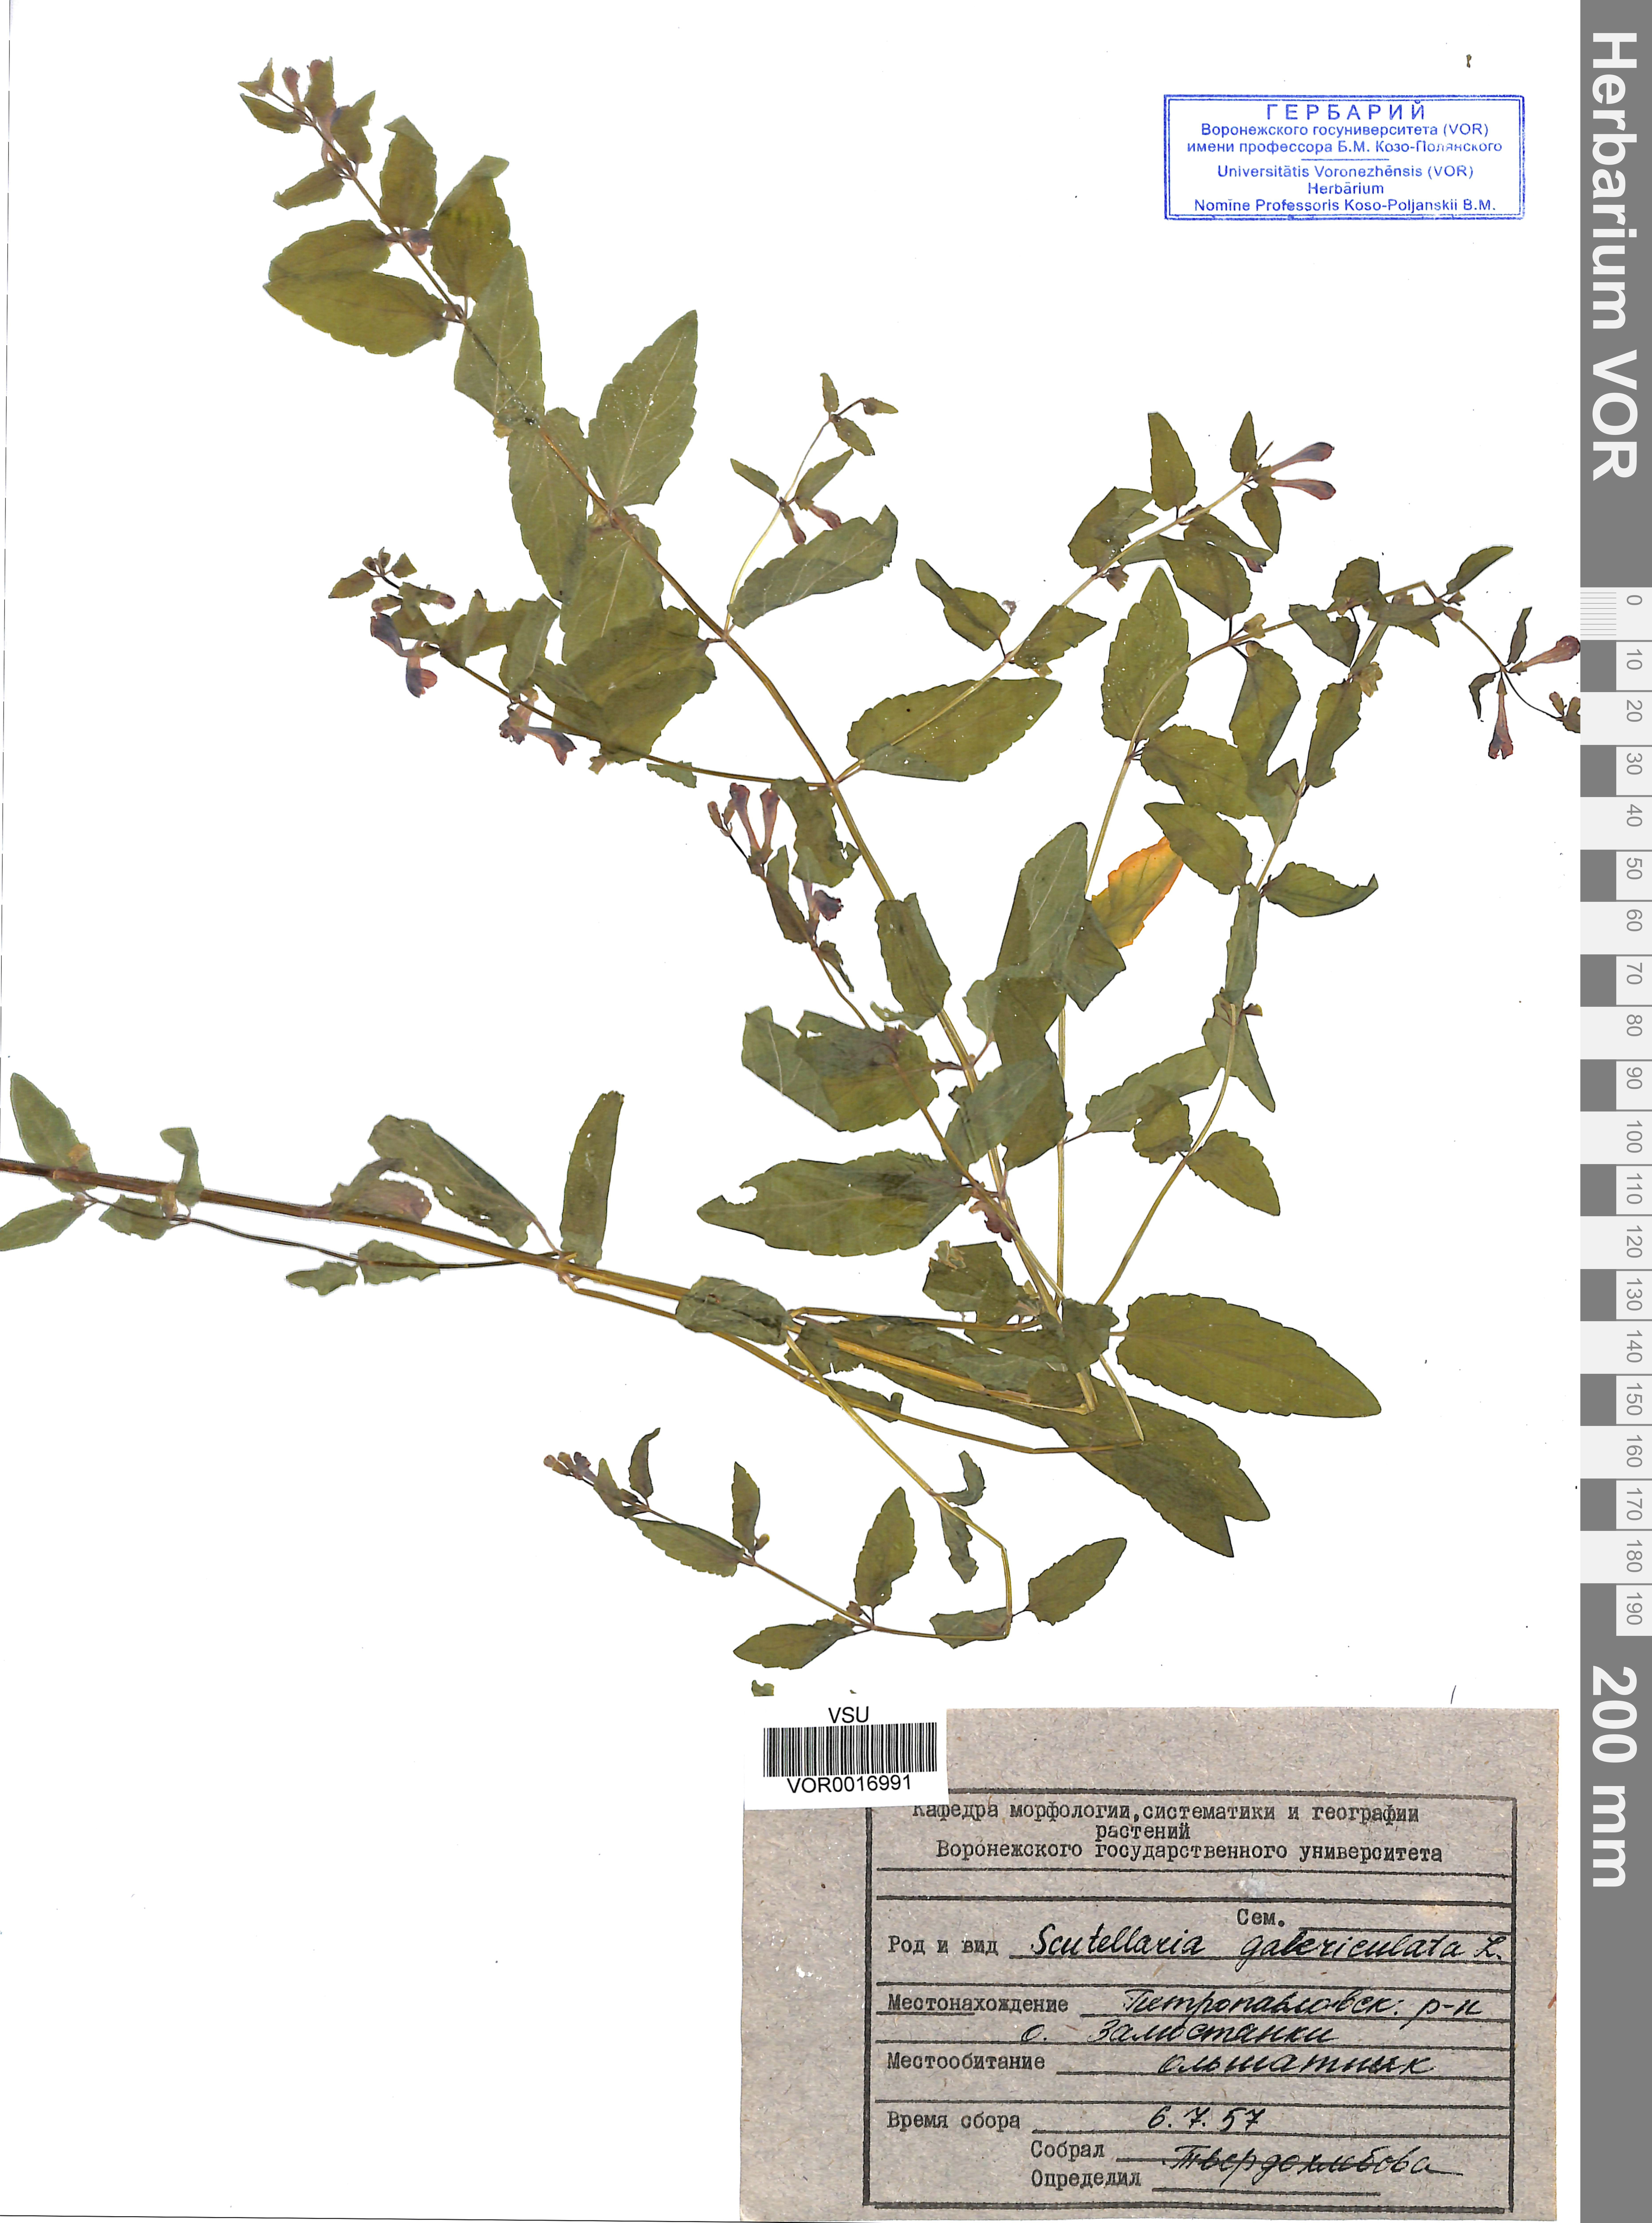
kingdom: Plantae
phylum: Tracheophyta
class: Magnoliopsida
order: Lamiales
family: Lamiaceae
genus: Scutellaria
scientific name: Scutellaria galericulata
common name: Skullcap
